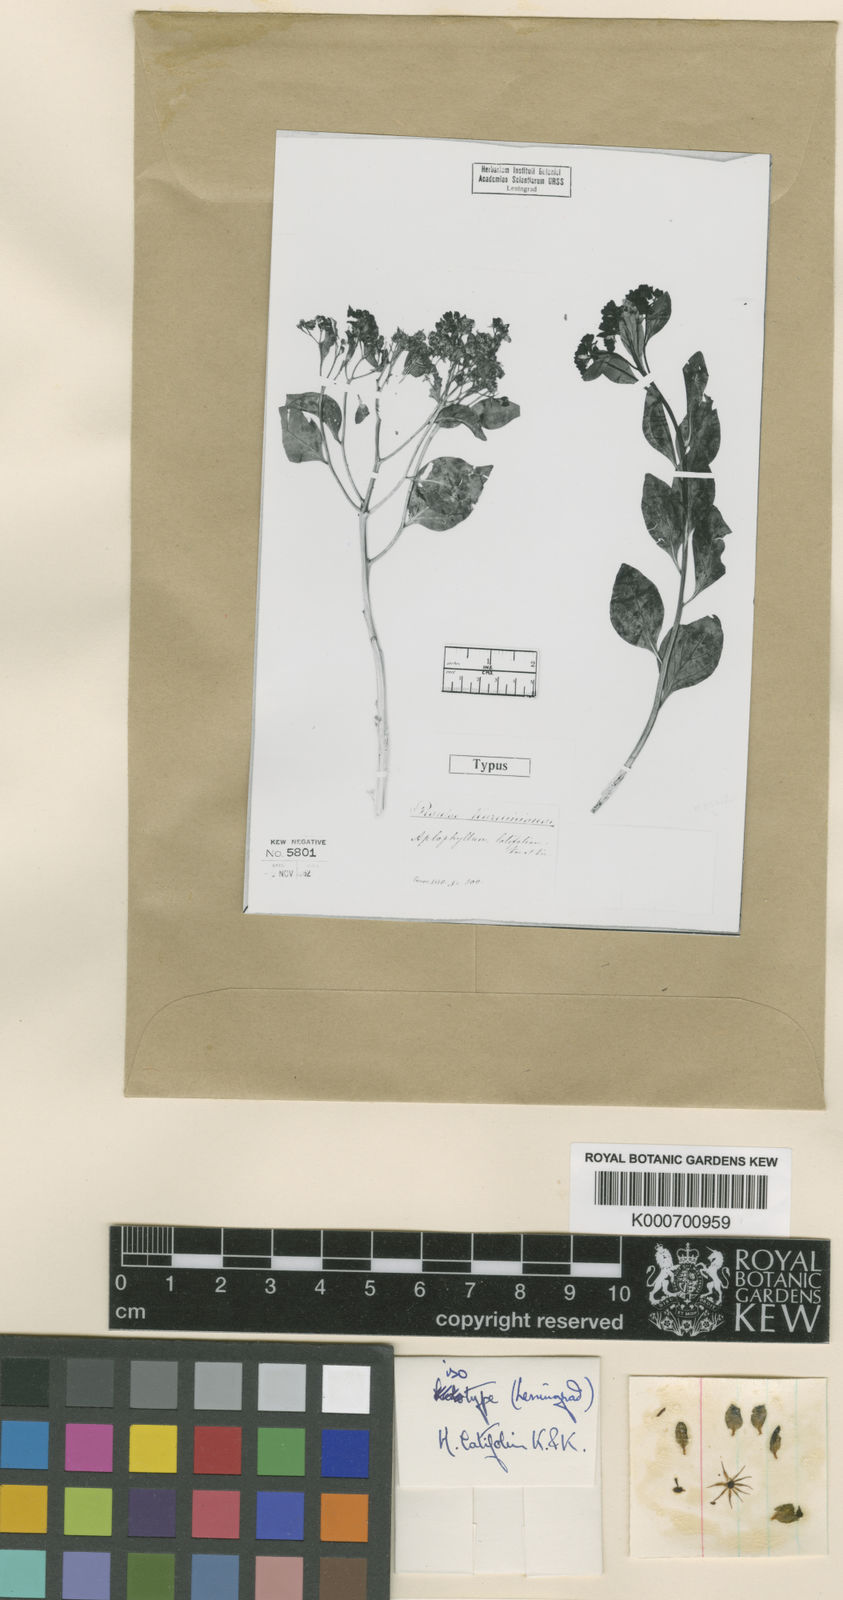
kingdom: Plantae
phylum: Tracheophyta
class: Magnoliopsida
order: Sapindales
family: Rutaceae
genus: Haplophyllum
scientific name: Haplophyllum
